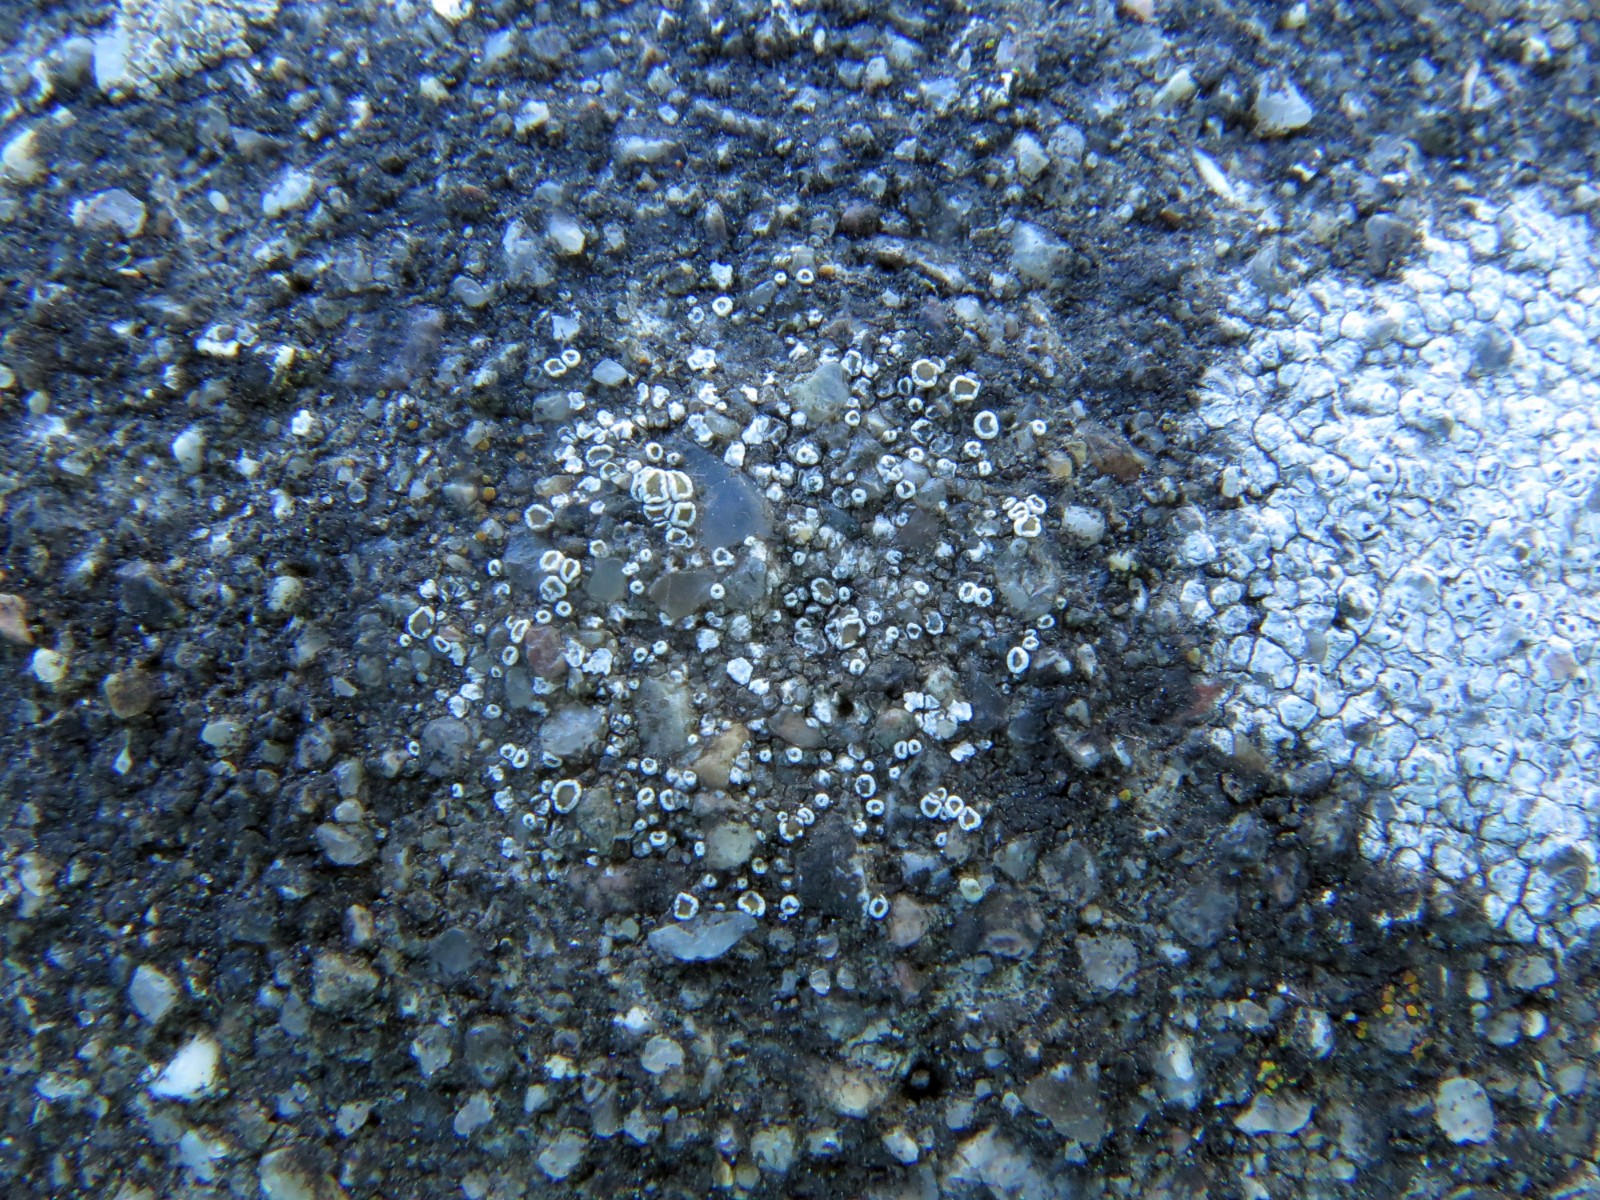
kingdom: Fungi
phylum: Ascomycota
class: Lecanoromycetes
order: Lecanorales
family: Lecanoraceae
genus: Polyozosia
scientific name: Polyozosia dispersa
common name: spredt kantskivelav
